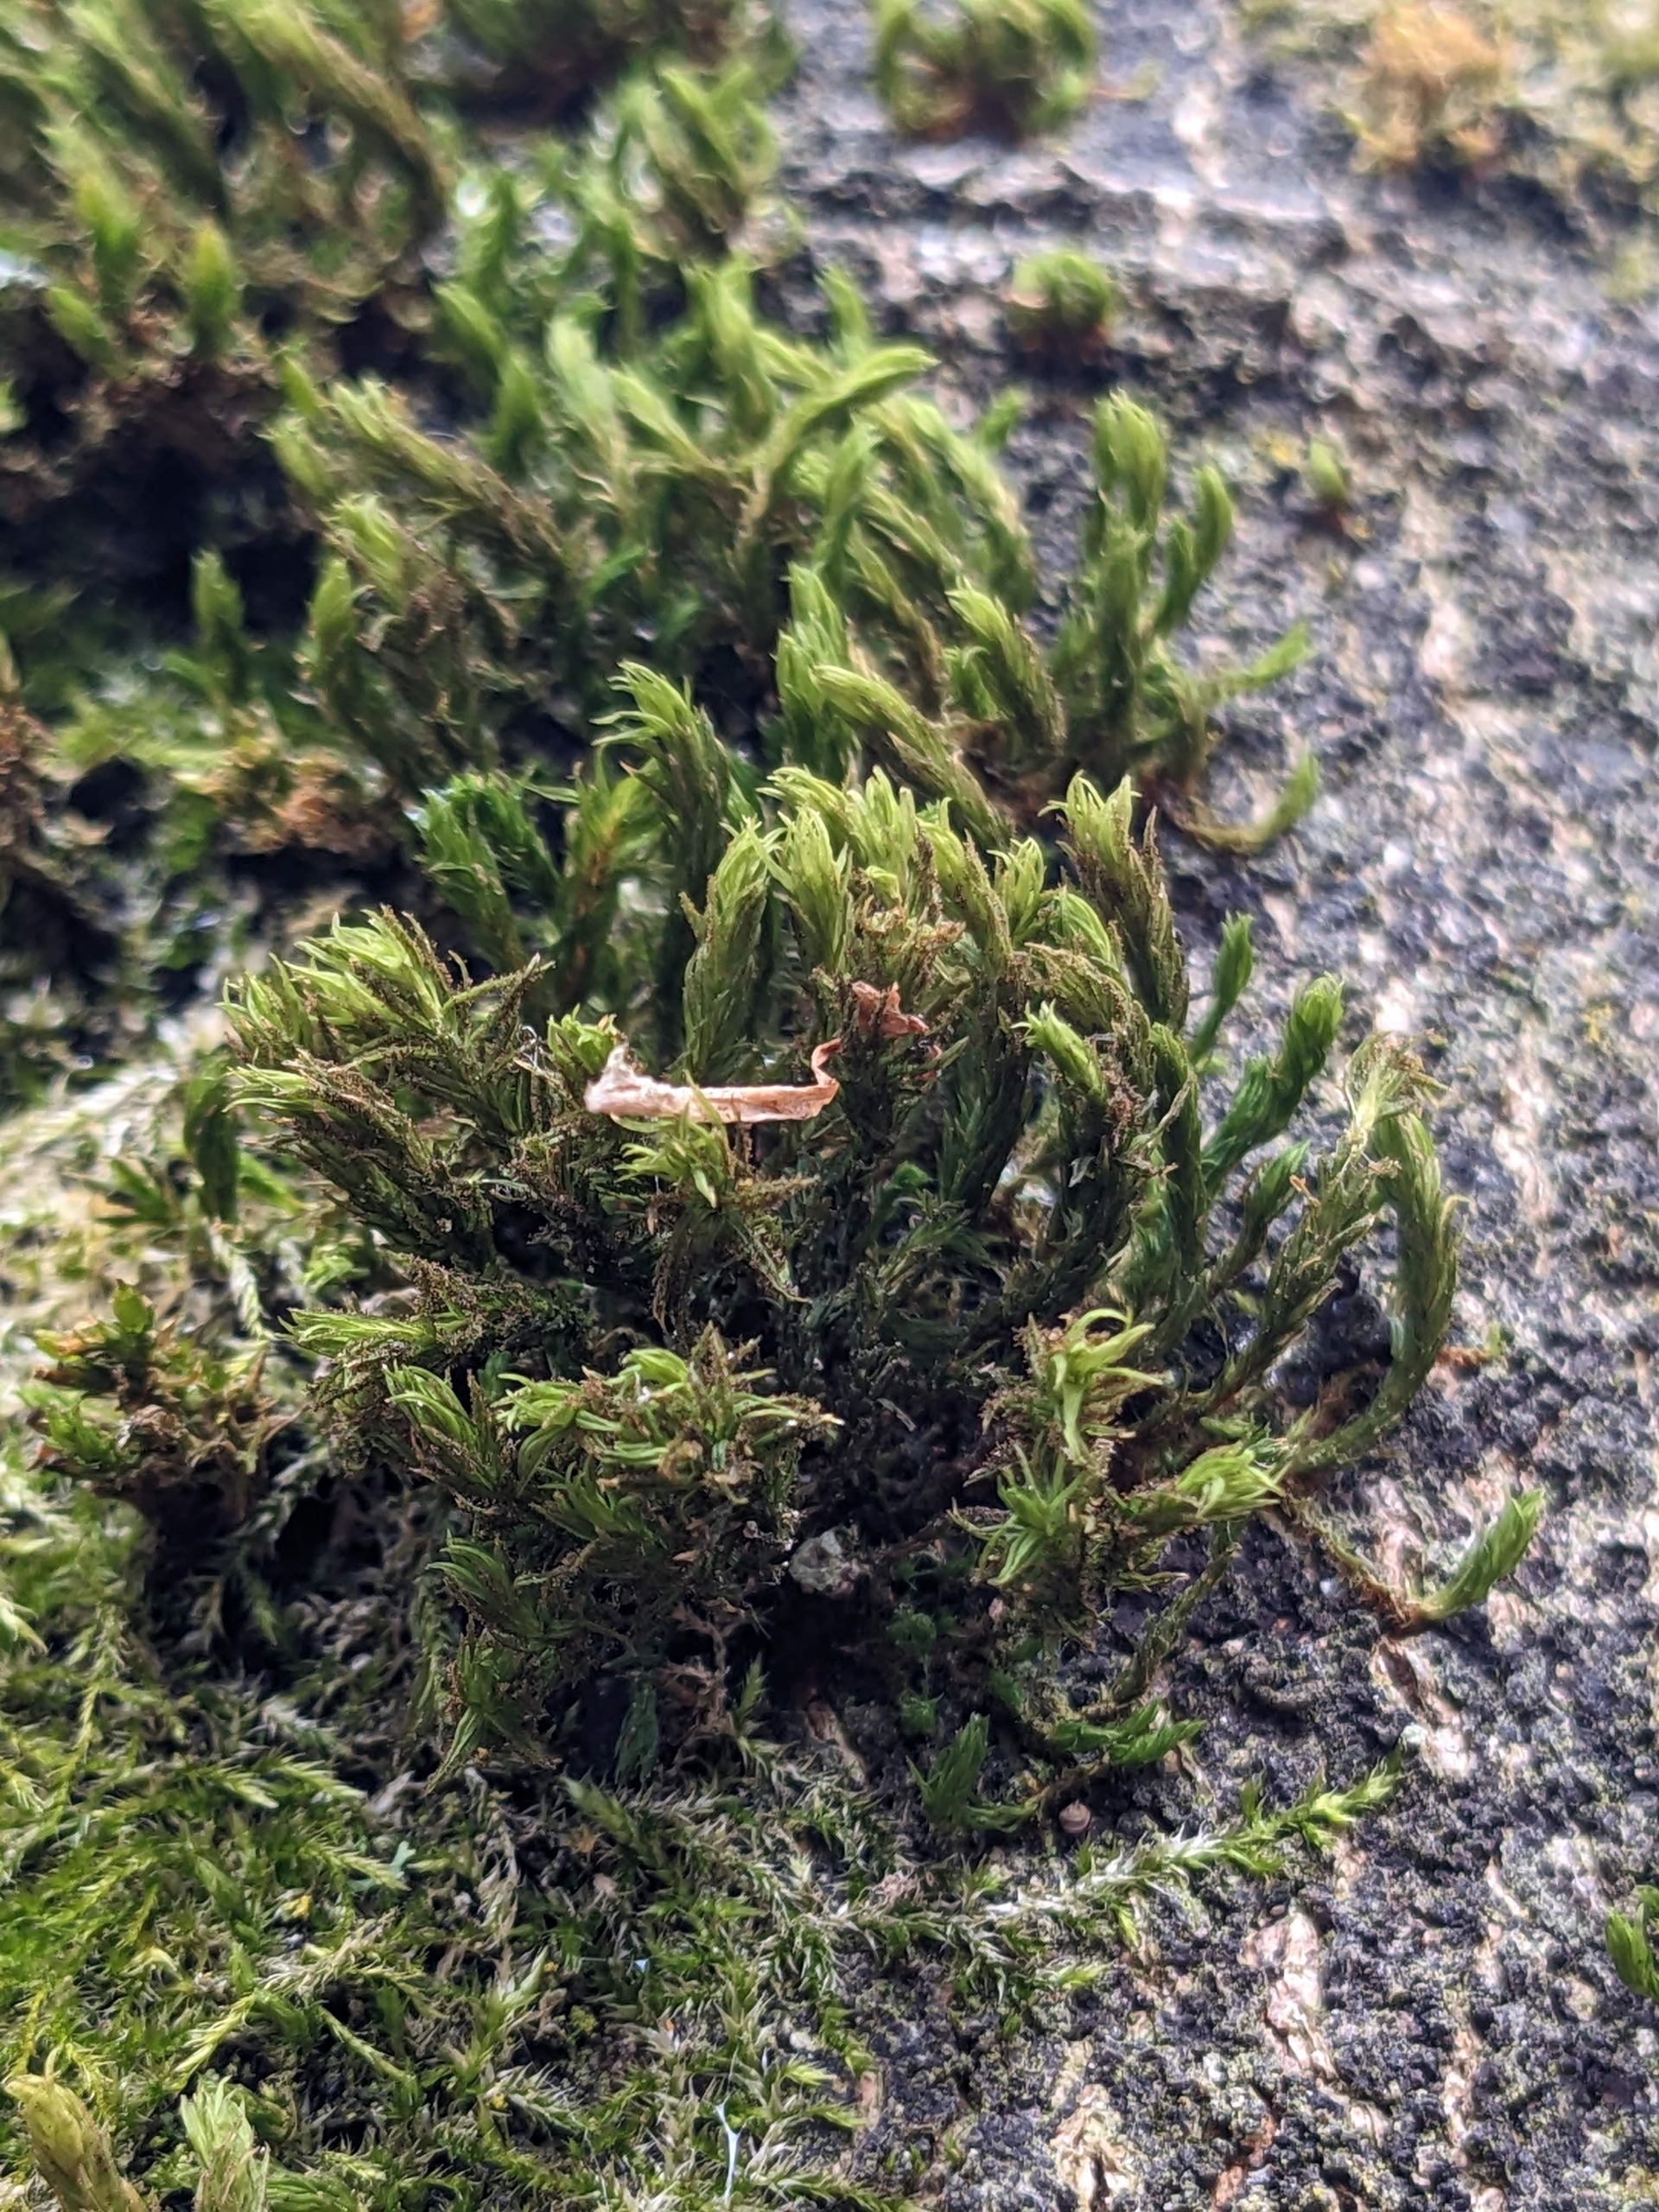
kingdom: Plantae
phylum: Bryophyta
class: Bryopsida
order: Orthotrichales
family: Orthotrichaceae
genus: Pulvigera
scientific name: Pulvigera lyellii
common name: Stor furehætte
